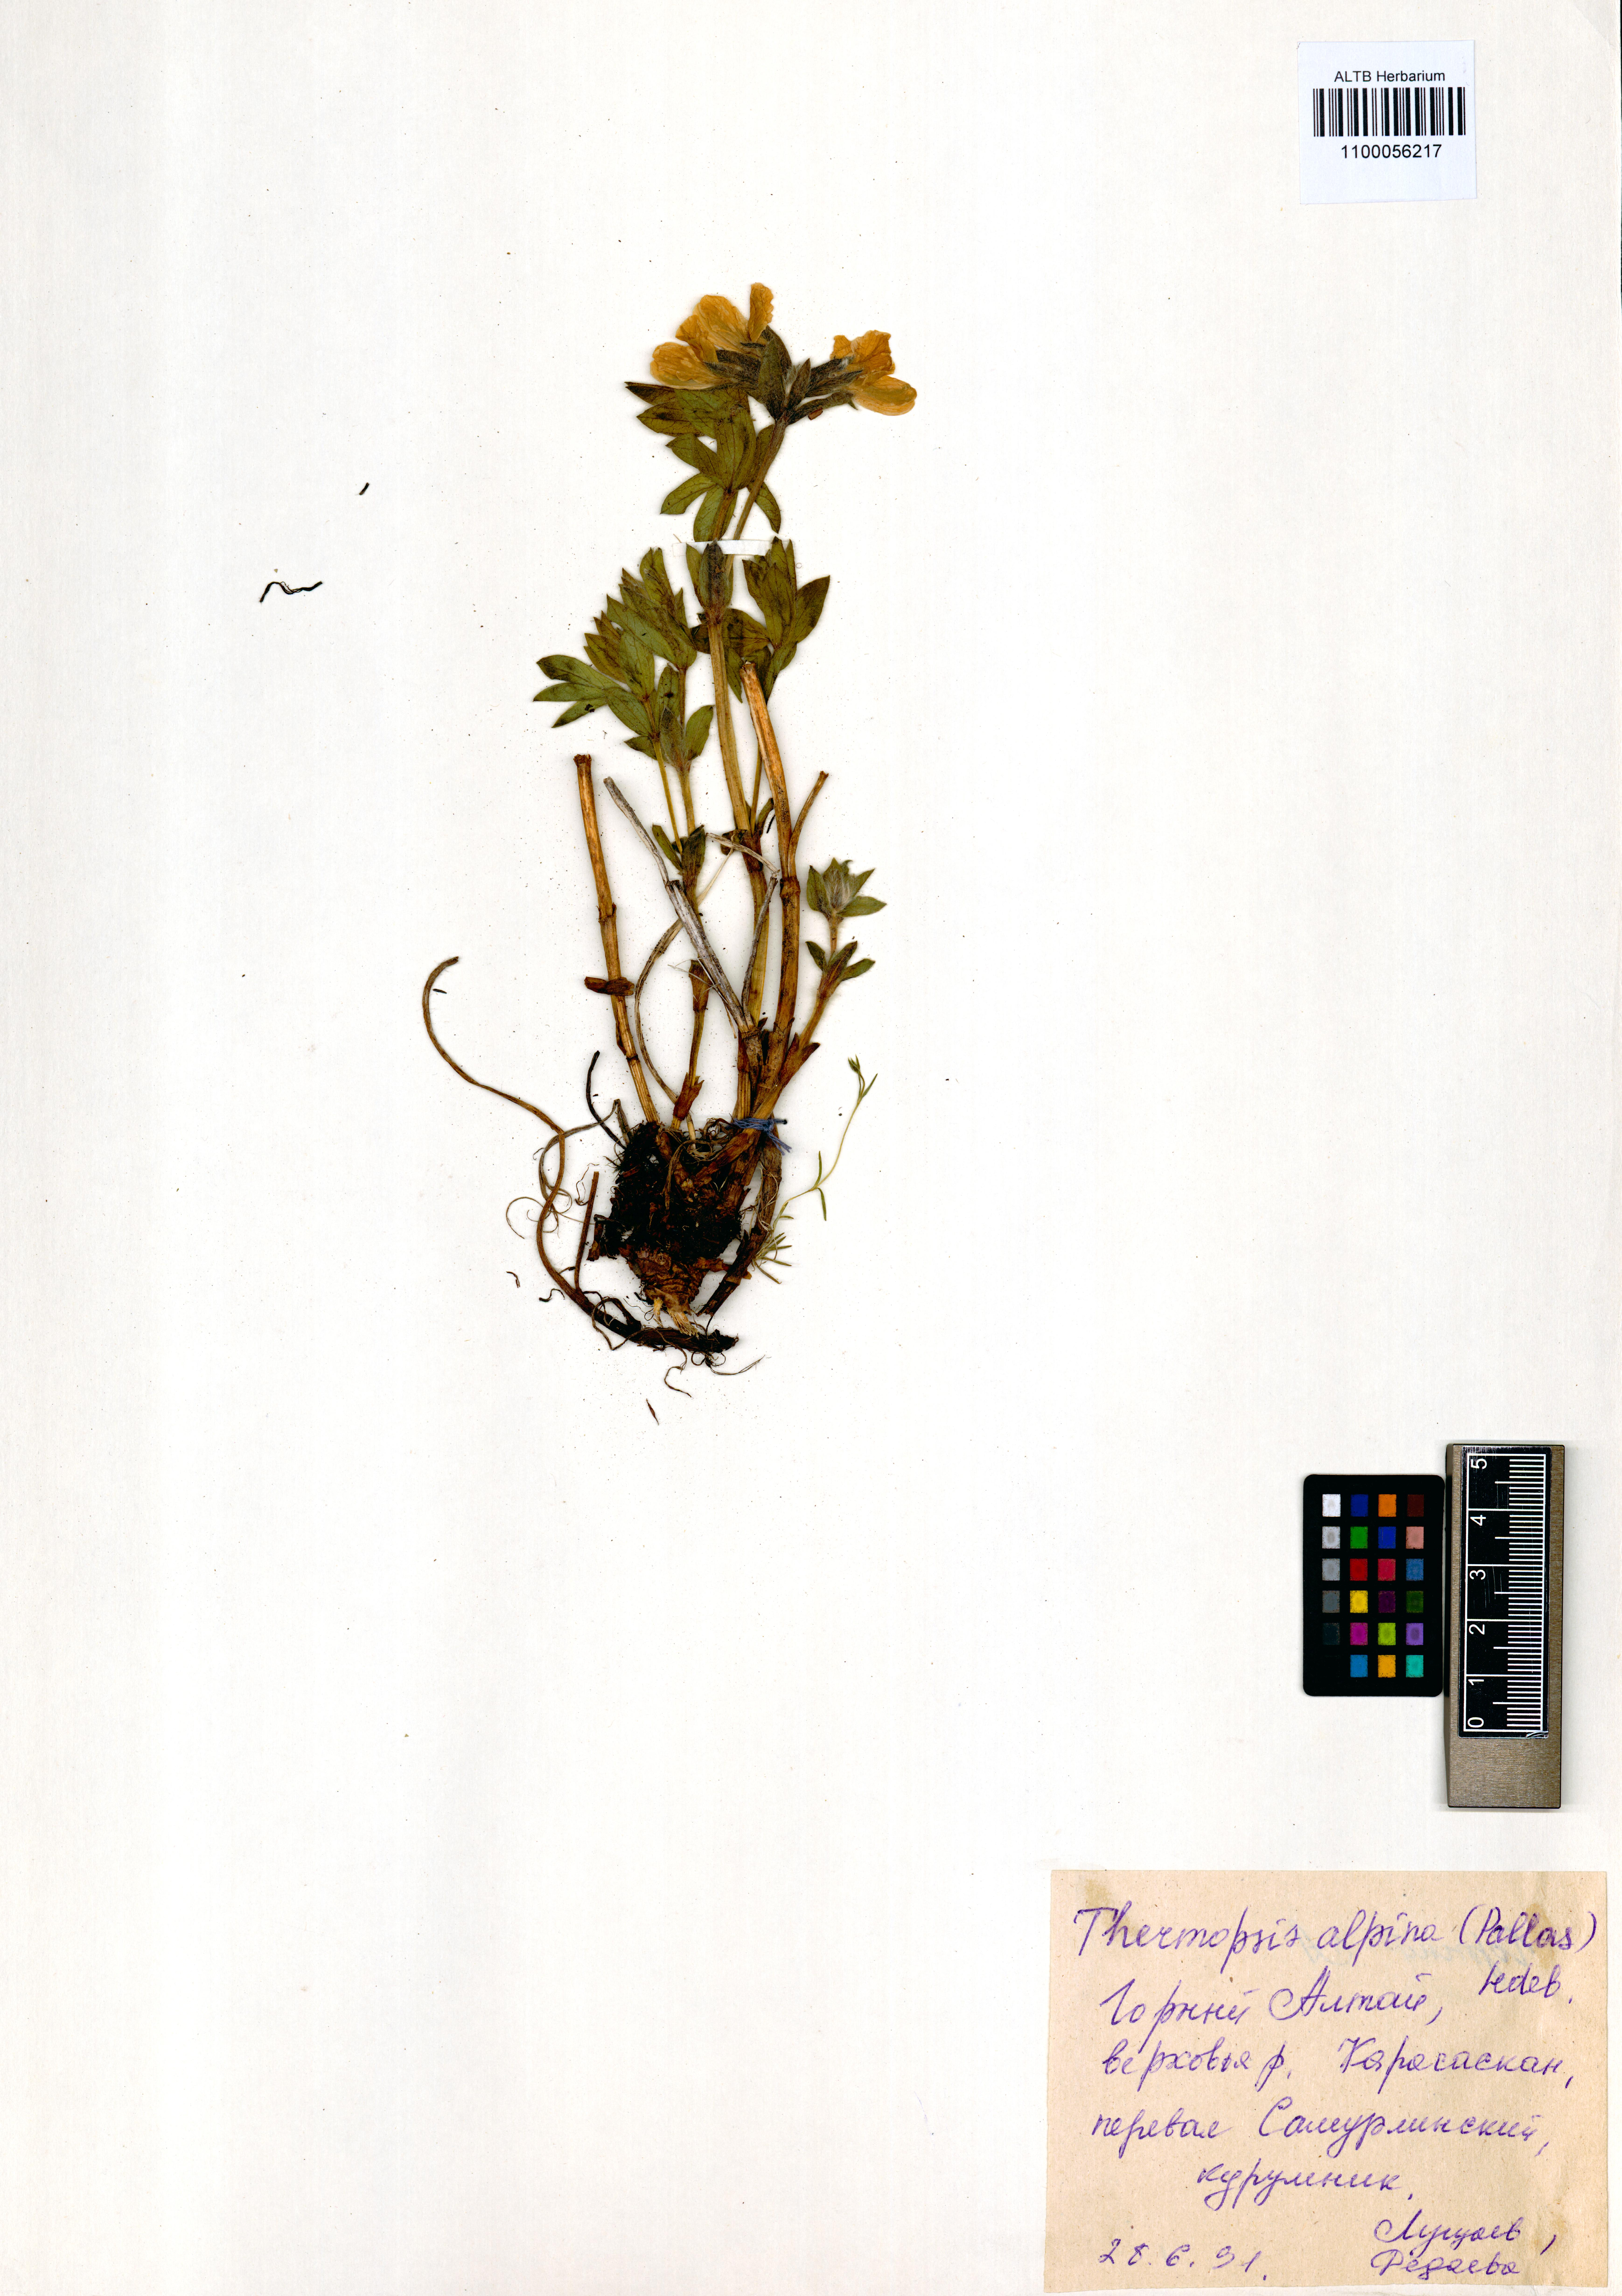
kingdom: Plantae
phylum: Tracheophyta
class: Magnoliopsida
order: Fabales
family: Fabaceae
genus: Thermopsis
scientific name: Thermopsis alpina
